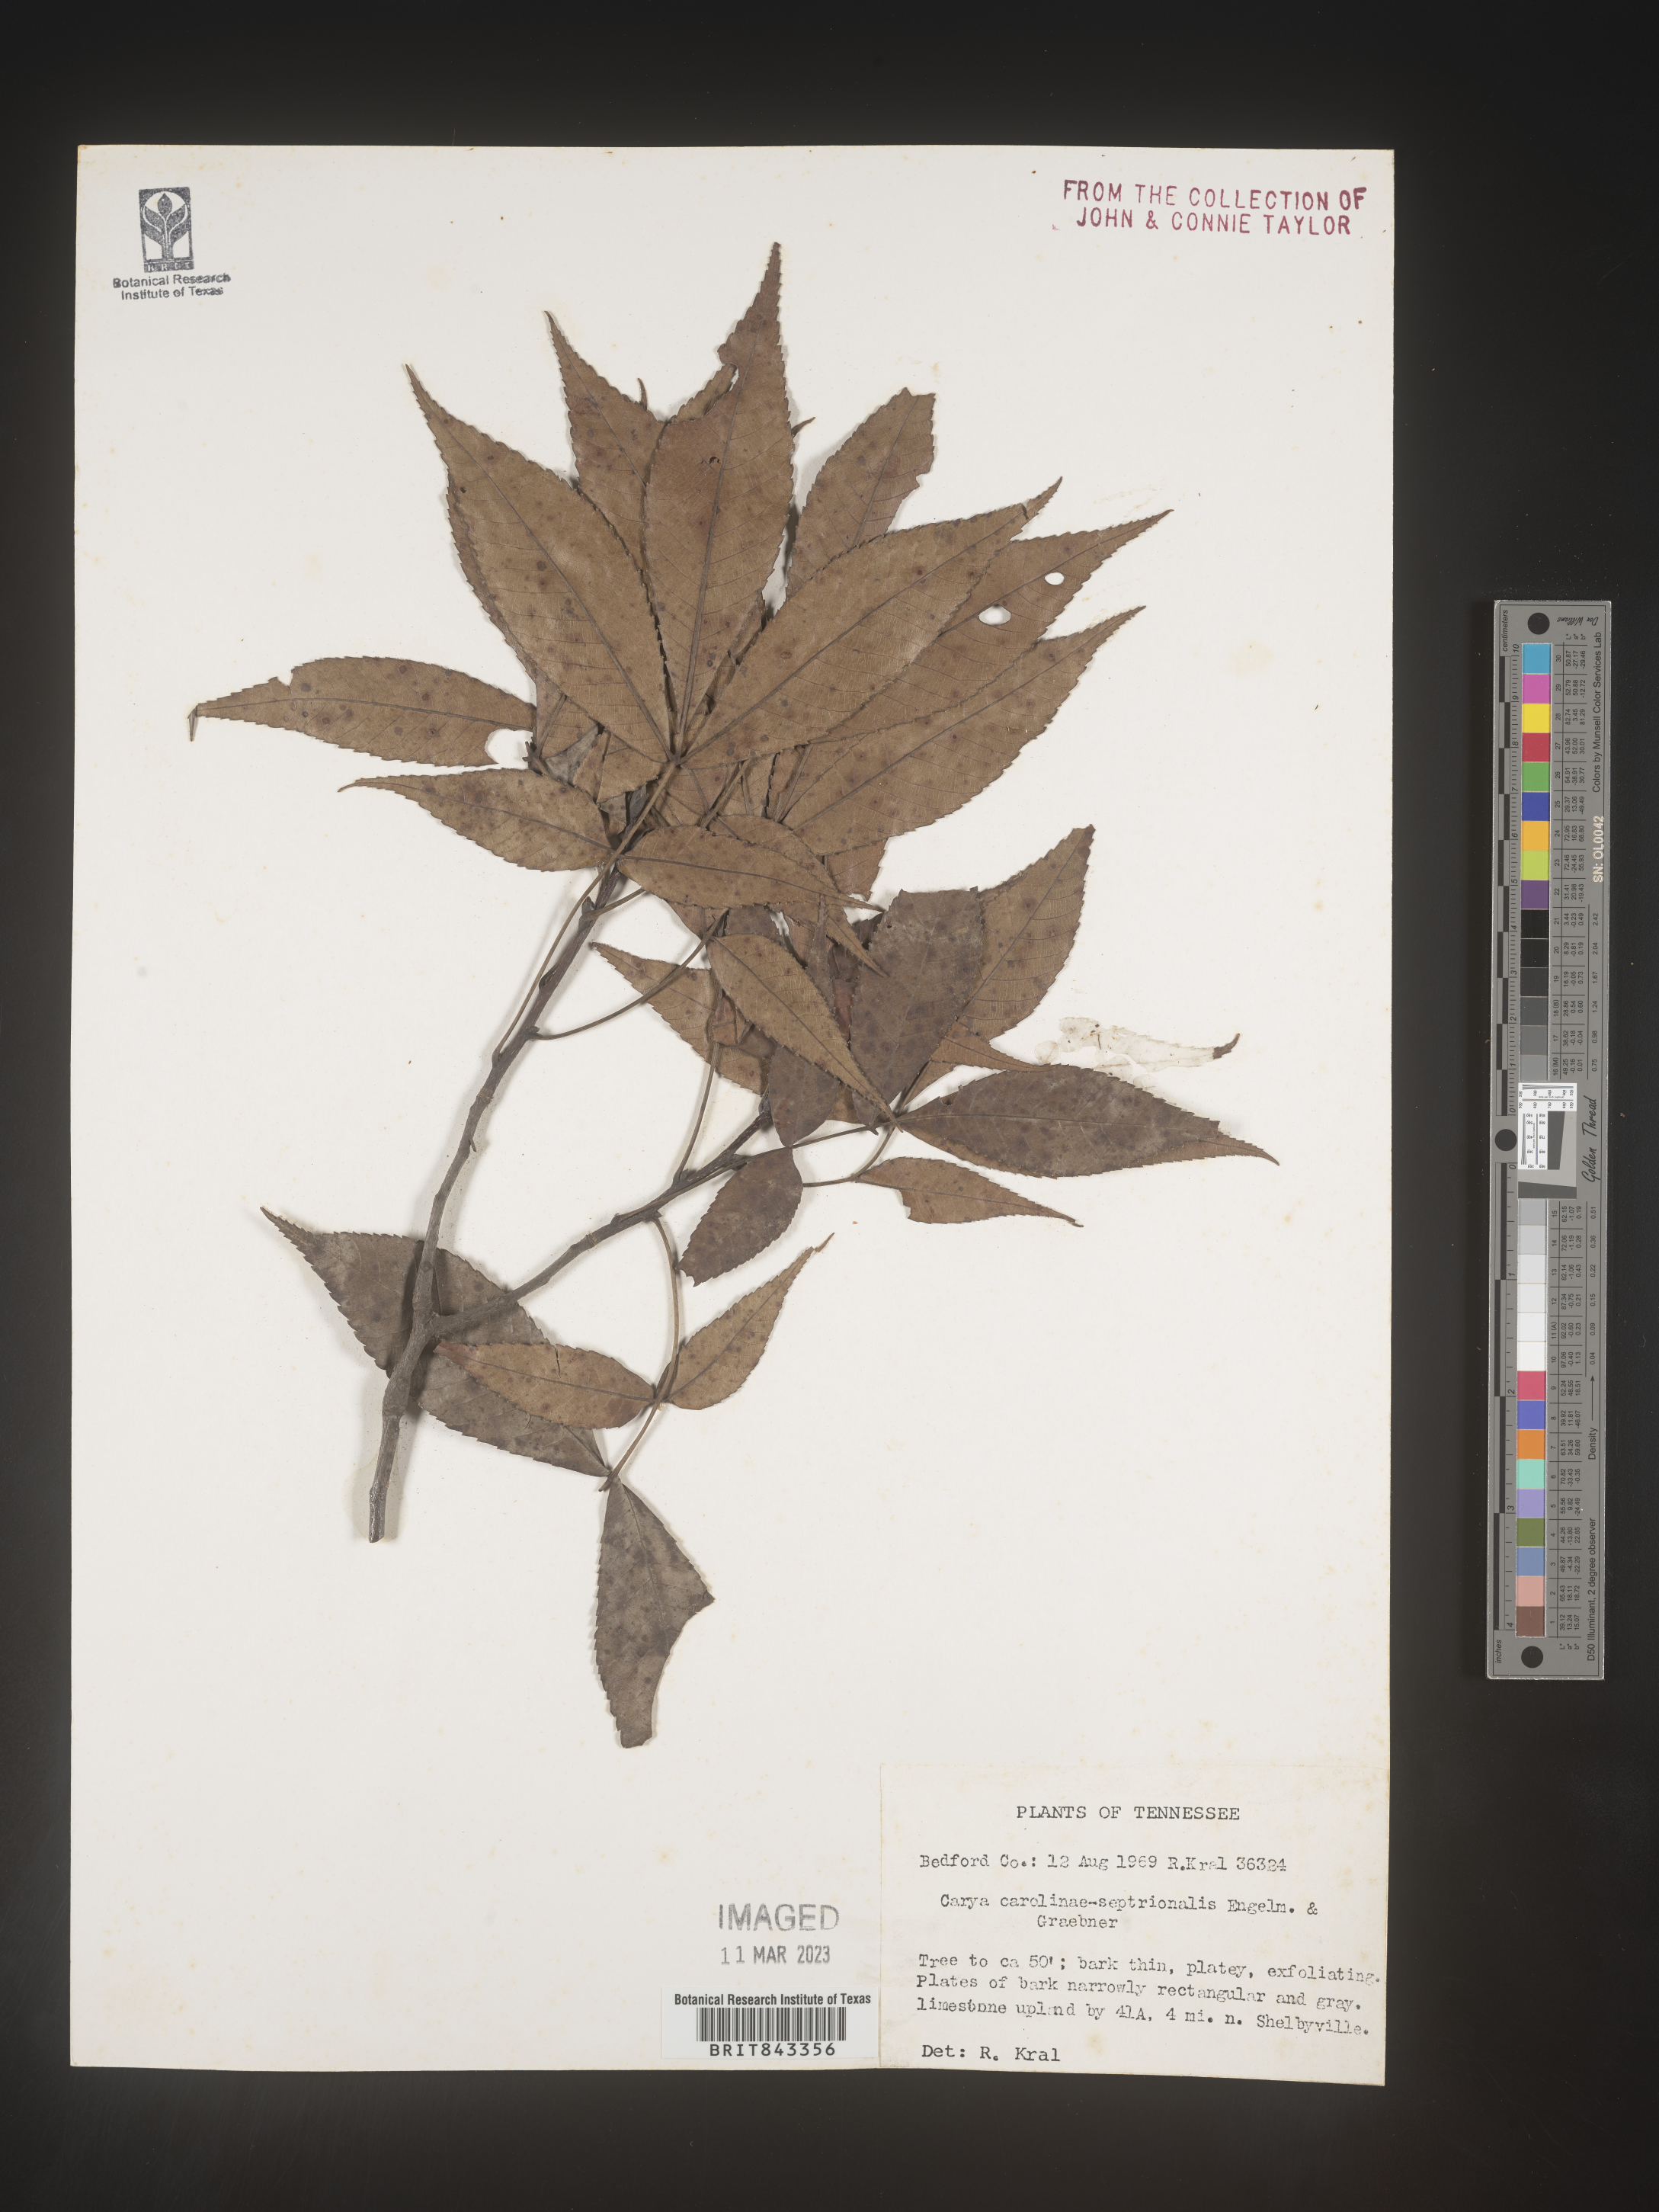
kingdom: Plantae
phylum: Tracheophyta
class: Magnoliopsida
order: Fagales
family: Juglandaceae
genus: Carya
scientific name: Carya carolinae-septentrionalis
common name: Carolina hickory
